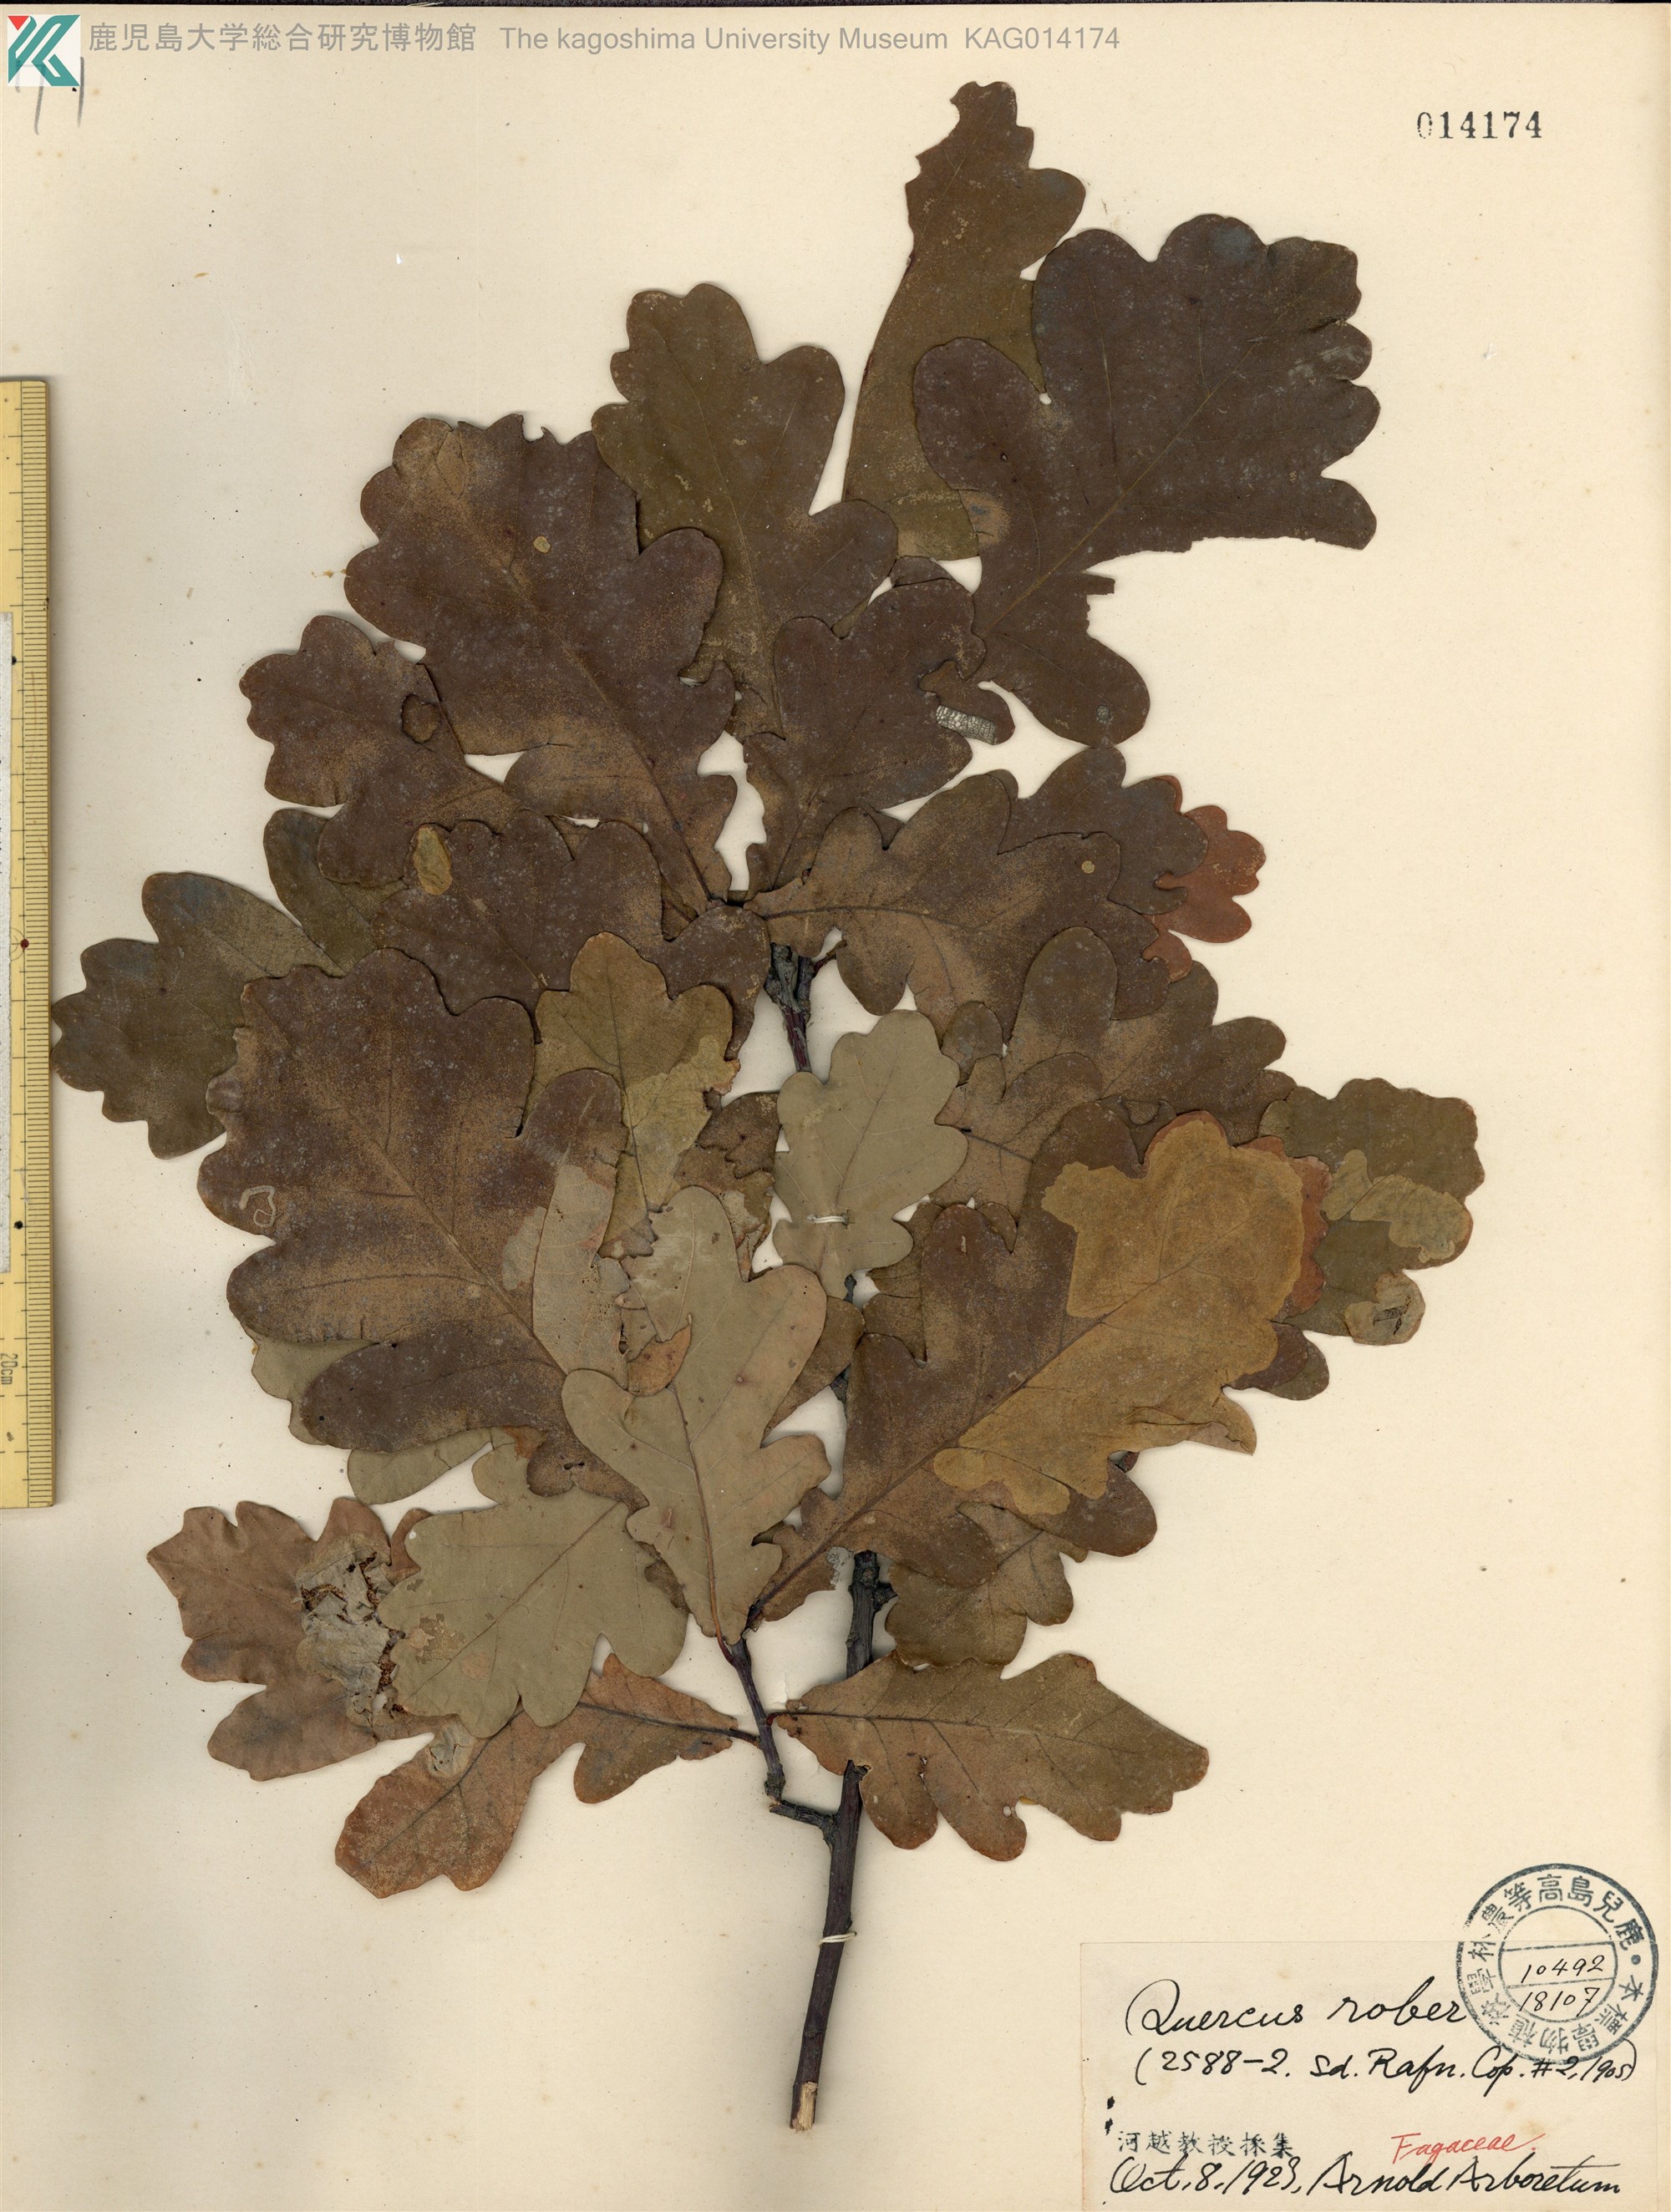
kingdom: Plantae
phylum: Tracheophyta
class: Magnoliopsida
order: Fagales
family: Fagaceae
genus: Quercus
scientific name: Quercus robur
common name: Pedunculate oak
